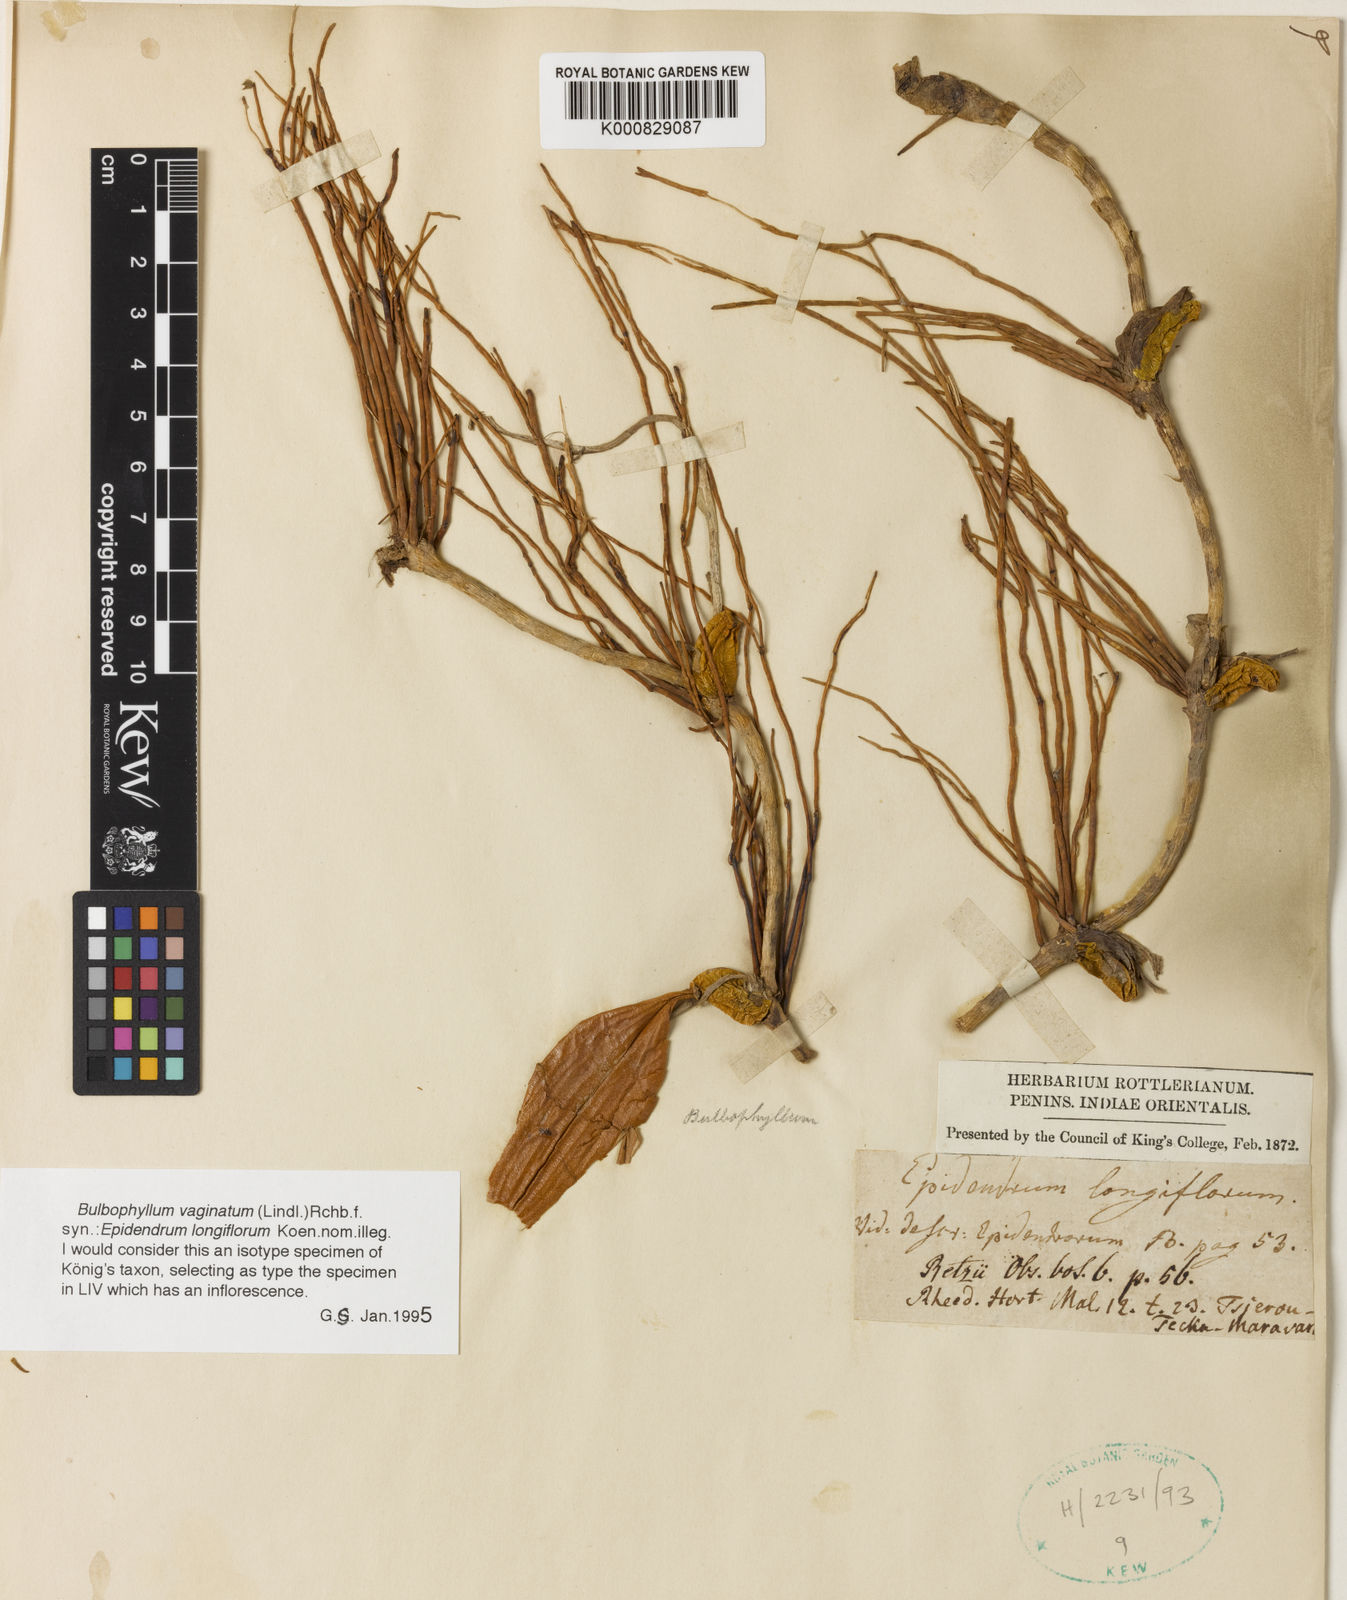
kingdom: Plantae
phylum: Tracheophyta
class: Liliopsida
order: Asparagales
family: Orchidaceae
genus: Bulbophyllum
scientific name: Bulbophyllum vaginatum
